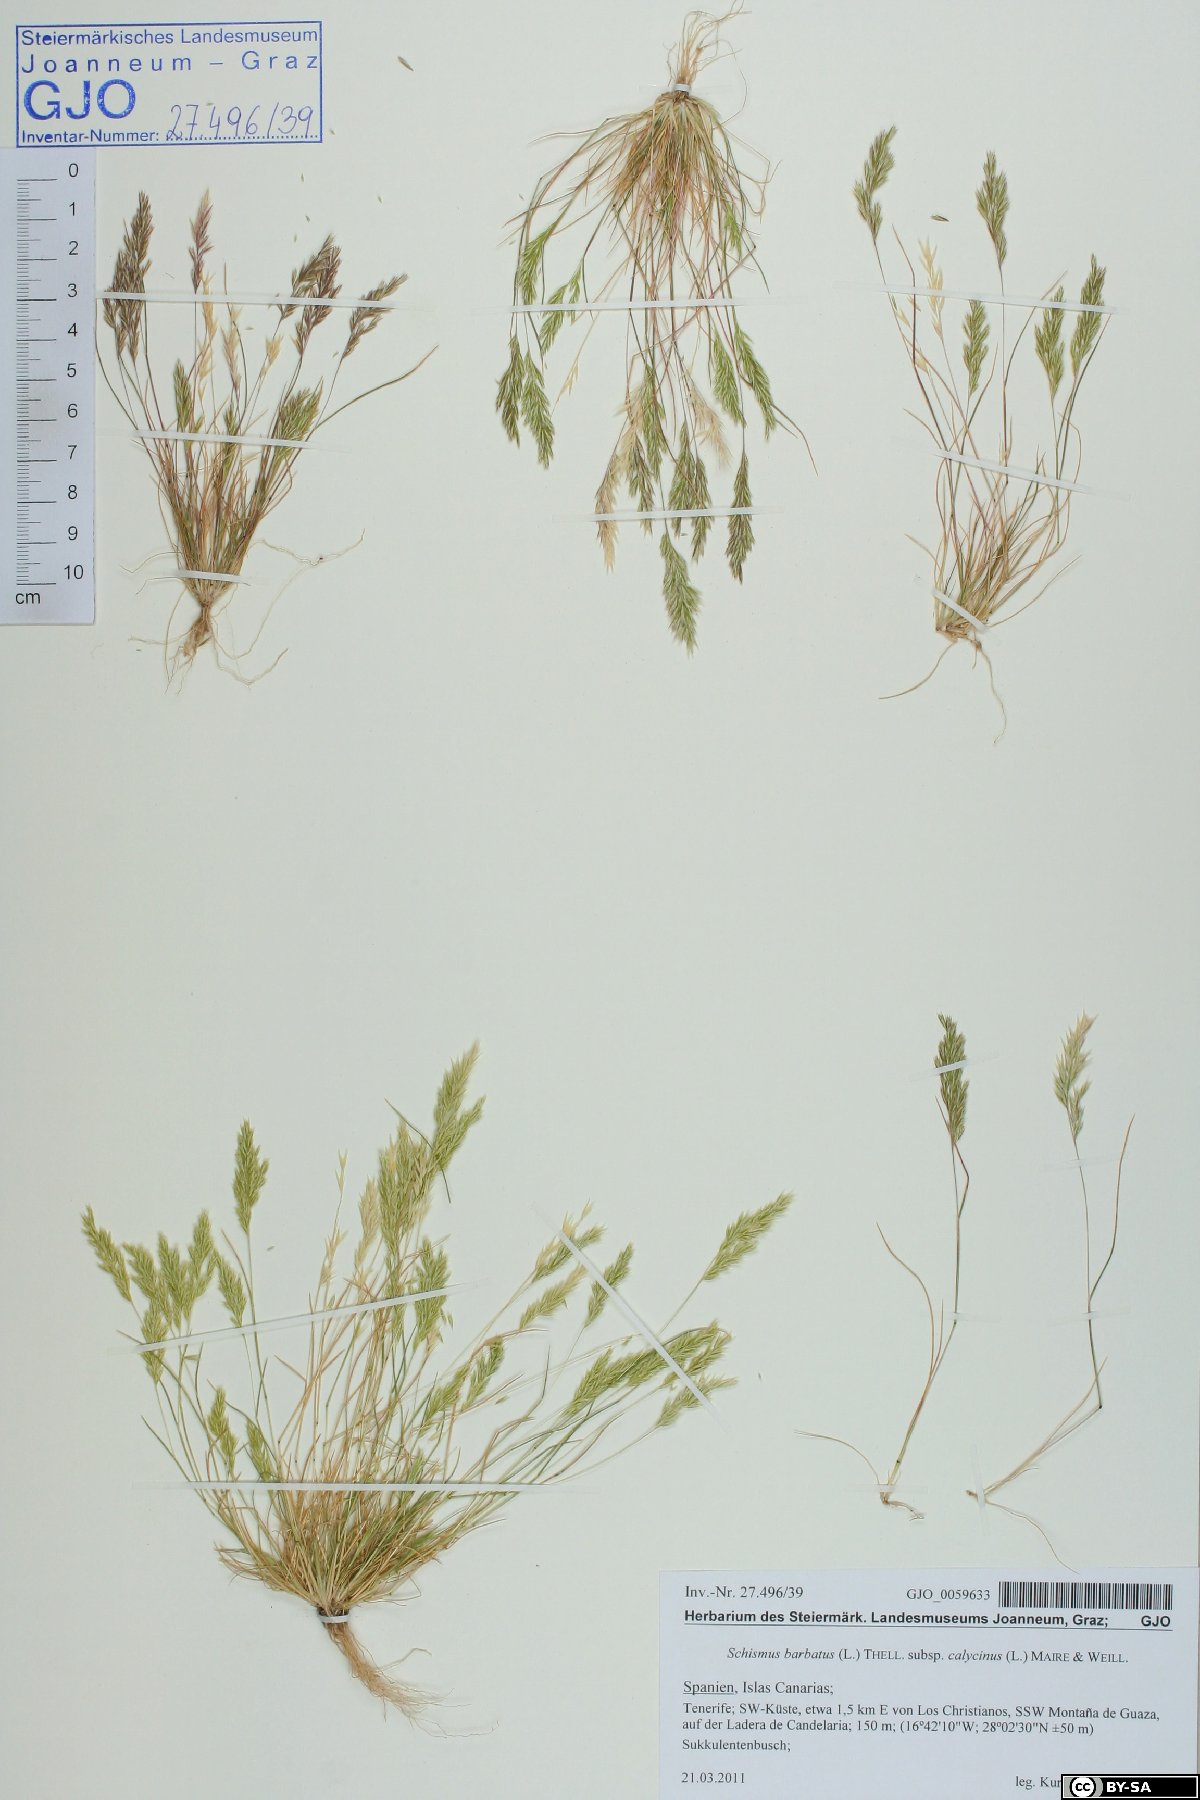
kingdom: Plantae
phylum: Tracheophyta
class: Liliopsida
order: Poales
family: Poaceae
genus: Schismus
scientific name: Schismus barbatus
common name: Kelch-grass
